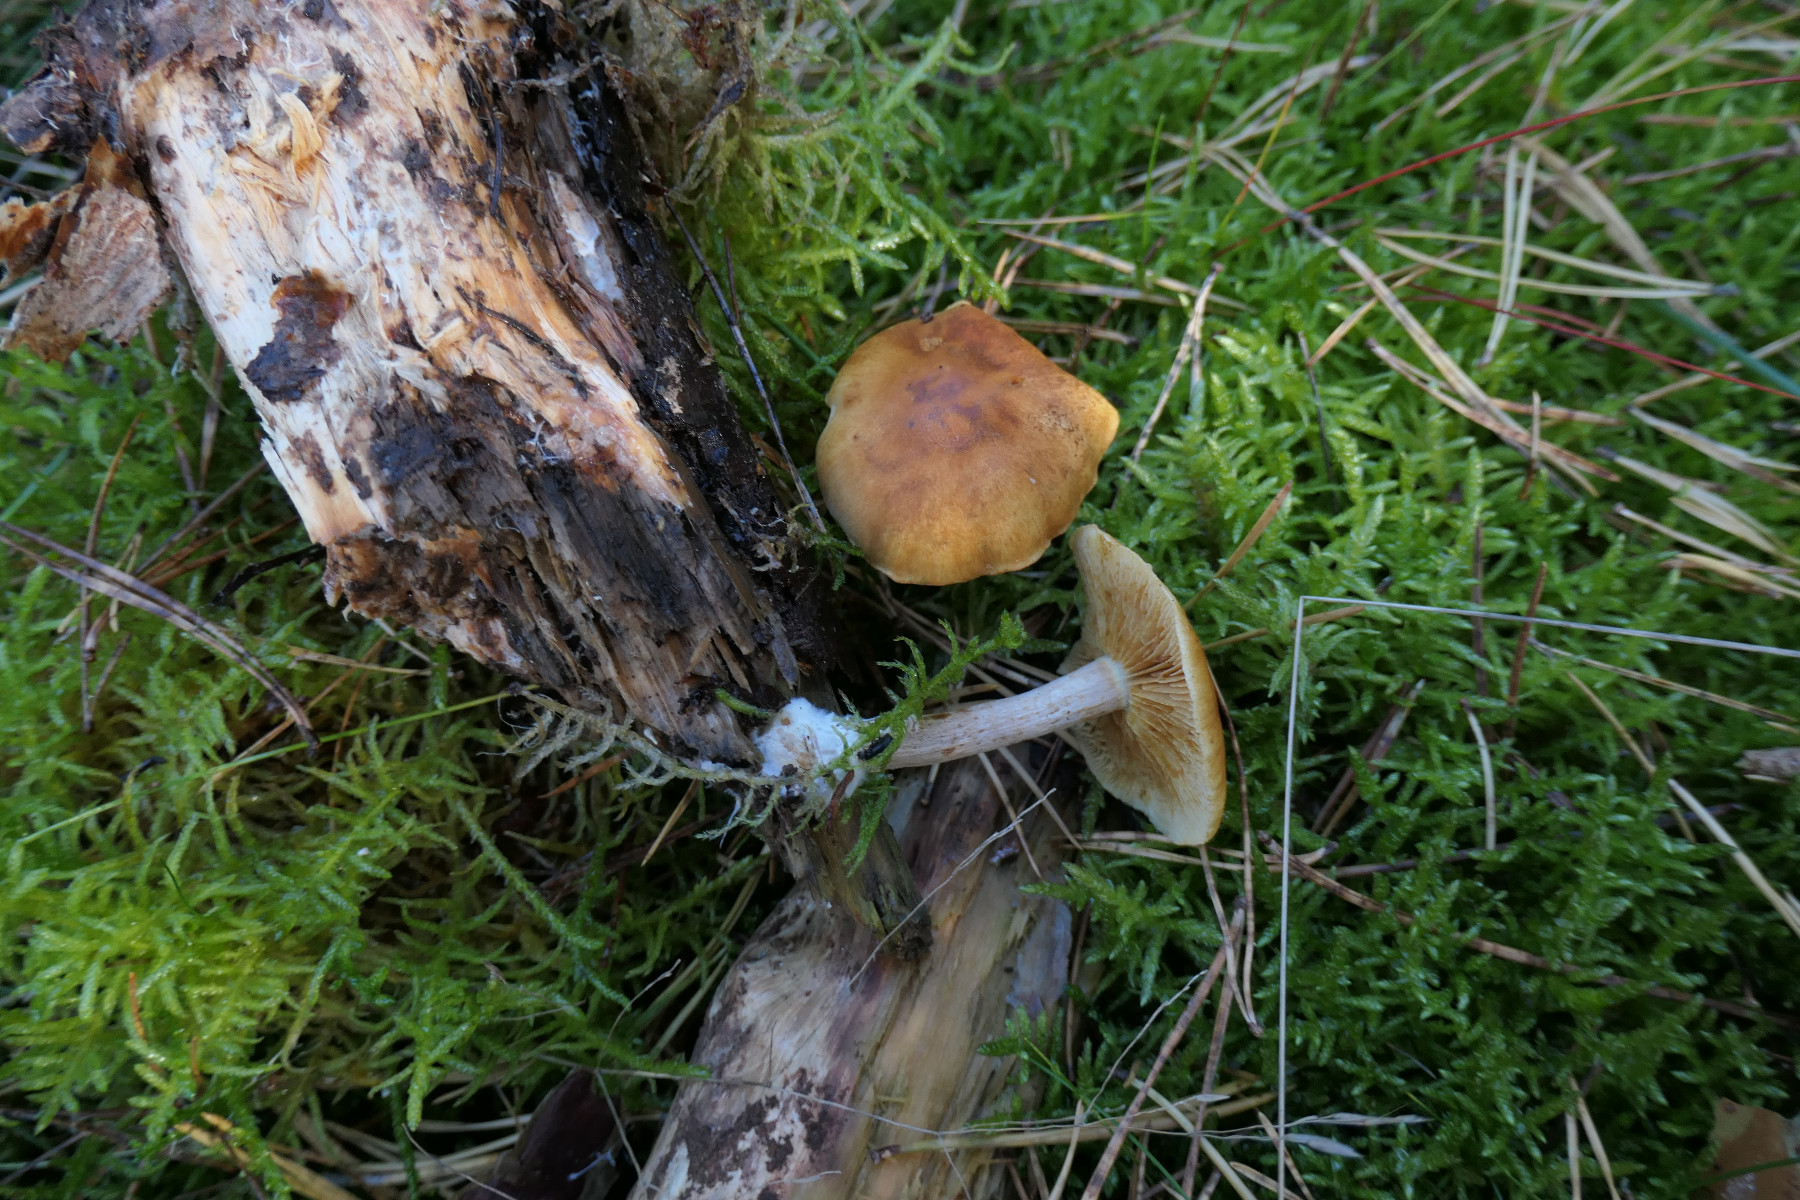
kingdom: Fungi
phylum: Basidiomycota
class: Agaricomycetes
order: Agaricales
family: Hymenogastraceae
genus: Gymnopilus
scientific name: Gymnopilus penetrans
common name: plettet flammehat
